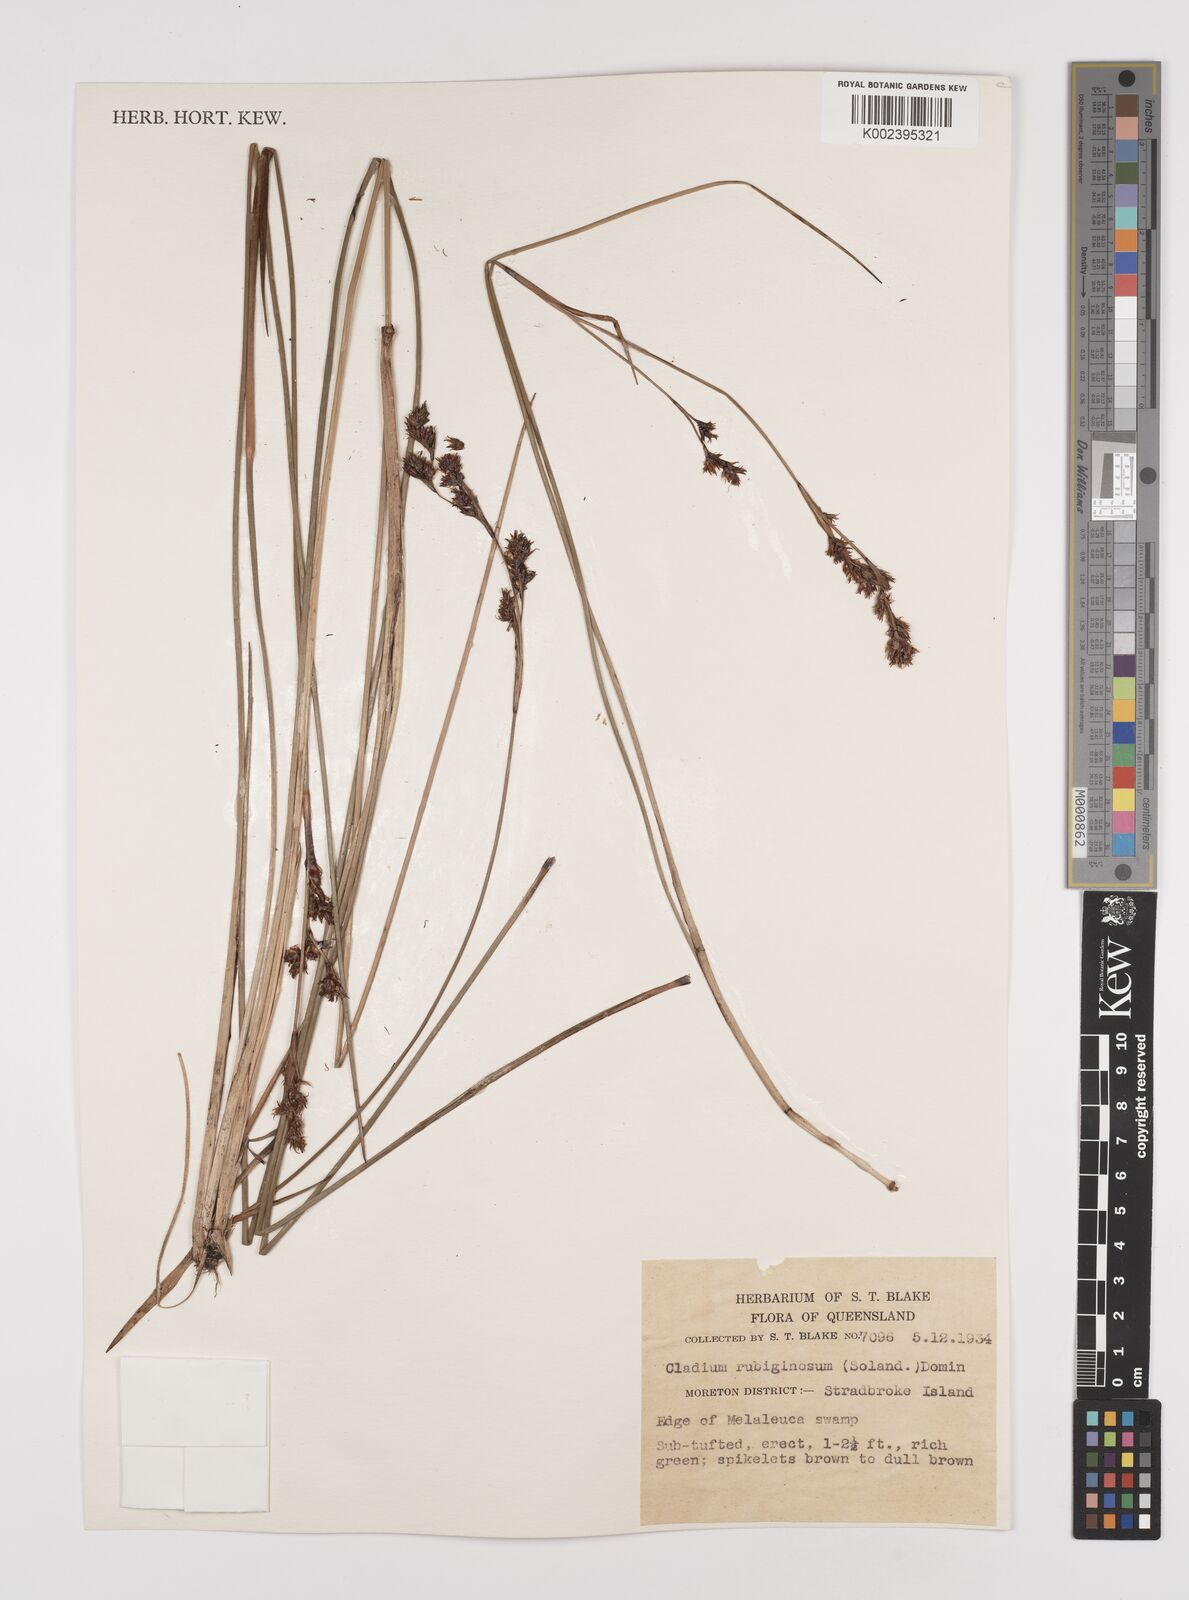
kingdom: Plantae
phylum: Tracheophyta
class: Liliopsida
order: Poales
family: Cyperaceae
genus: Machaerina
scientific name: Machaerina rubiginosa
